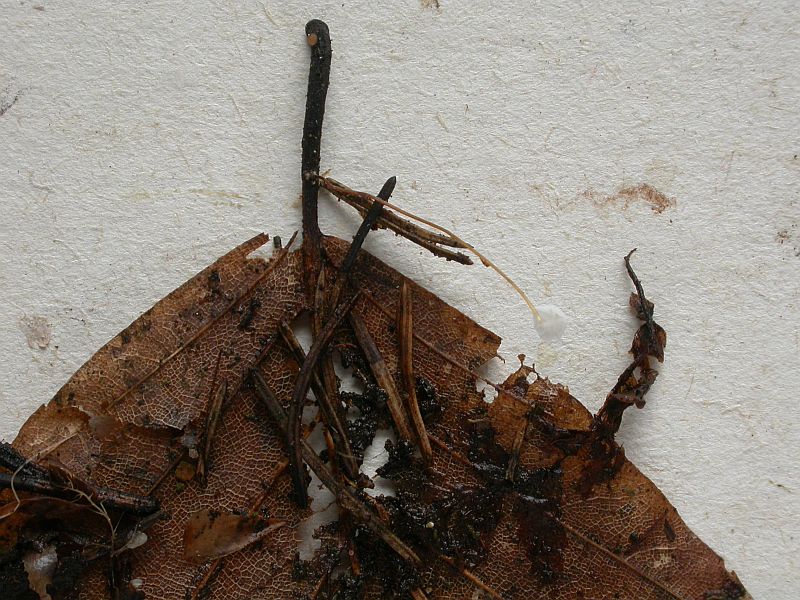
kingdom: Fungi
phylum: Basidiomycota
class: Agaricomycetes
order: Agaricales
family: Physalacriaceae
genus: Rhizomarasmius
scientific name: Rhizomarasmius setosus
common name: bøgeblads-bruskhat
